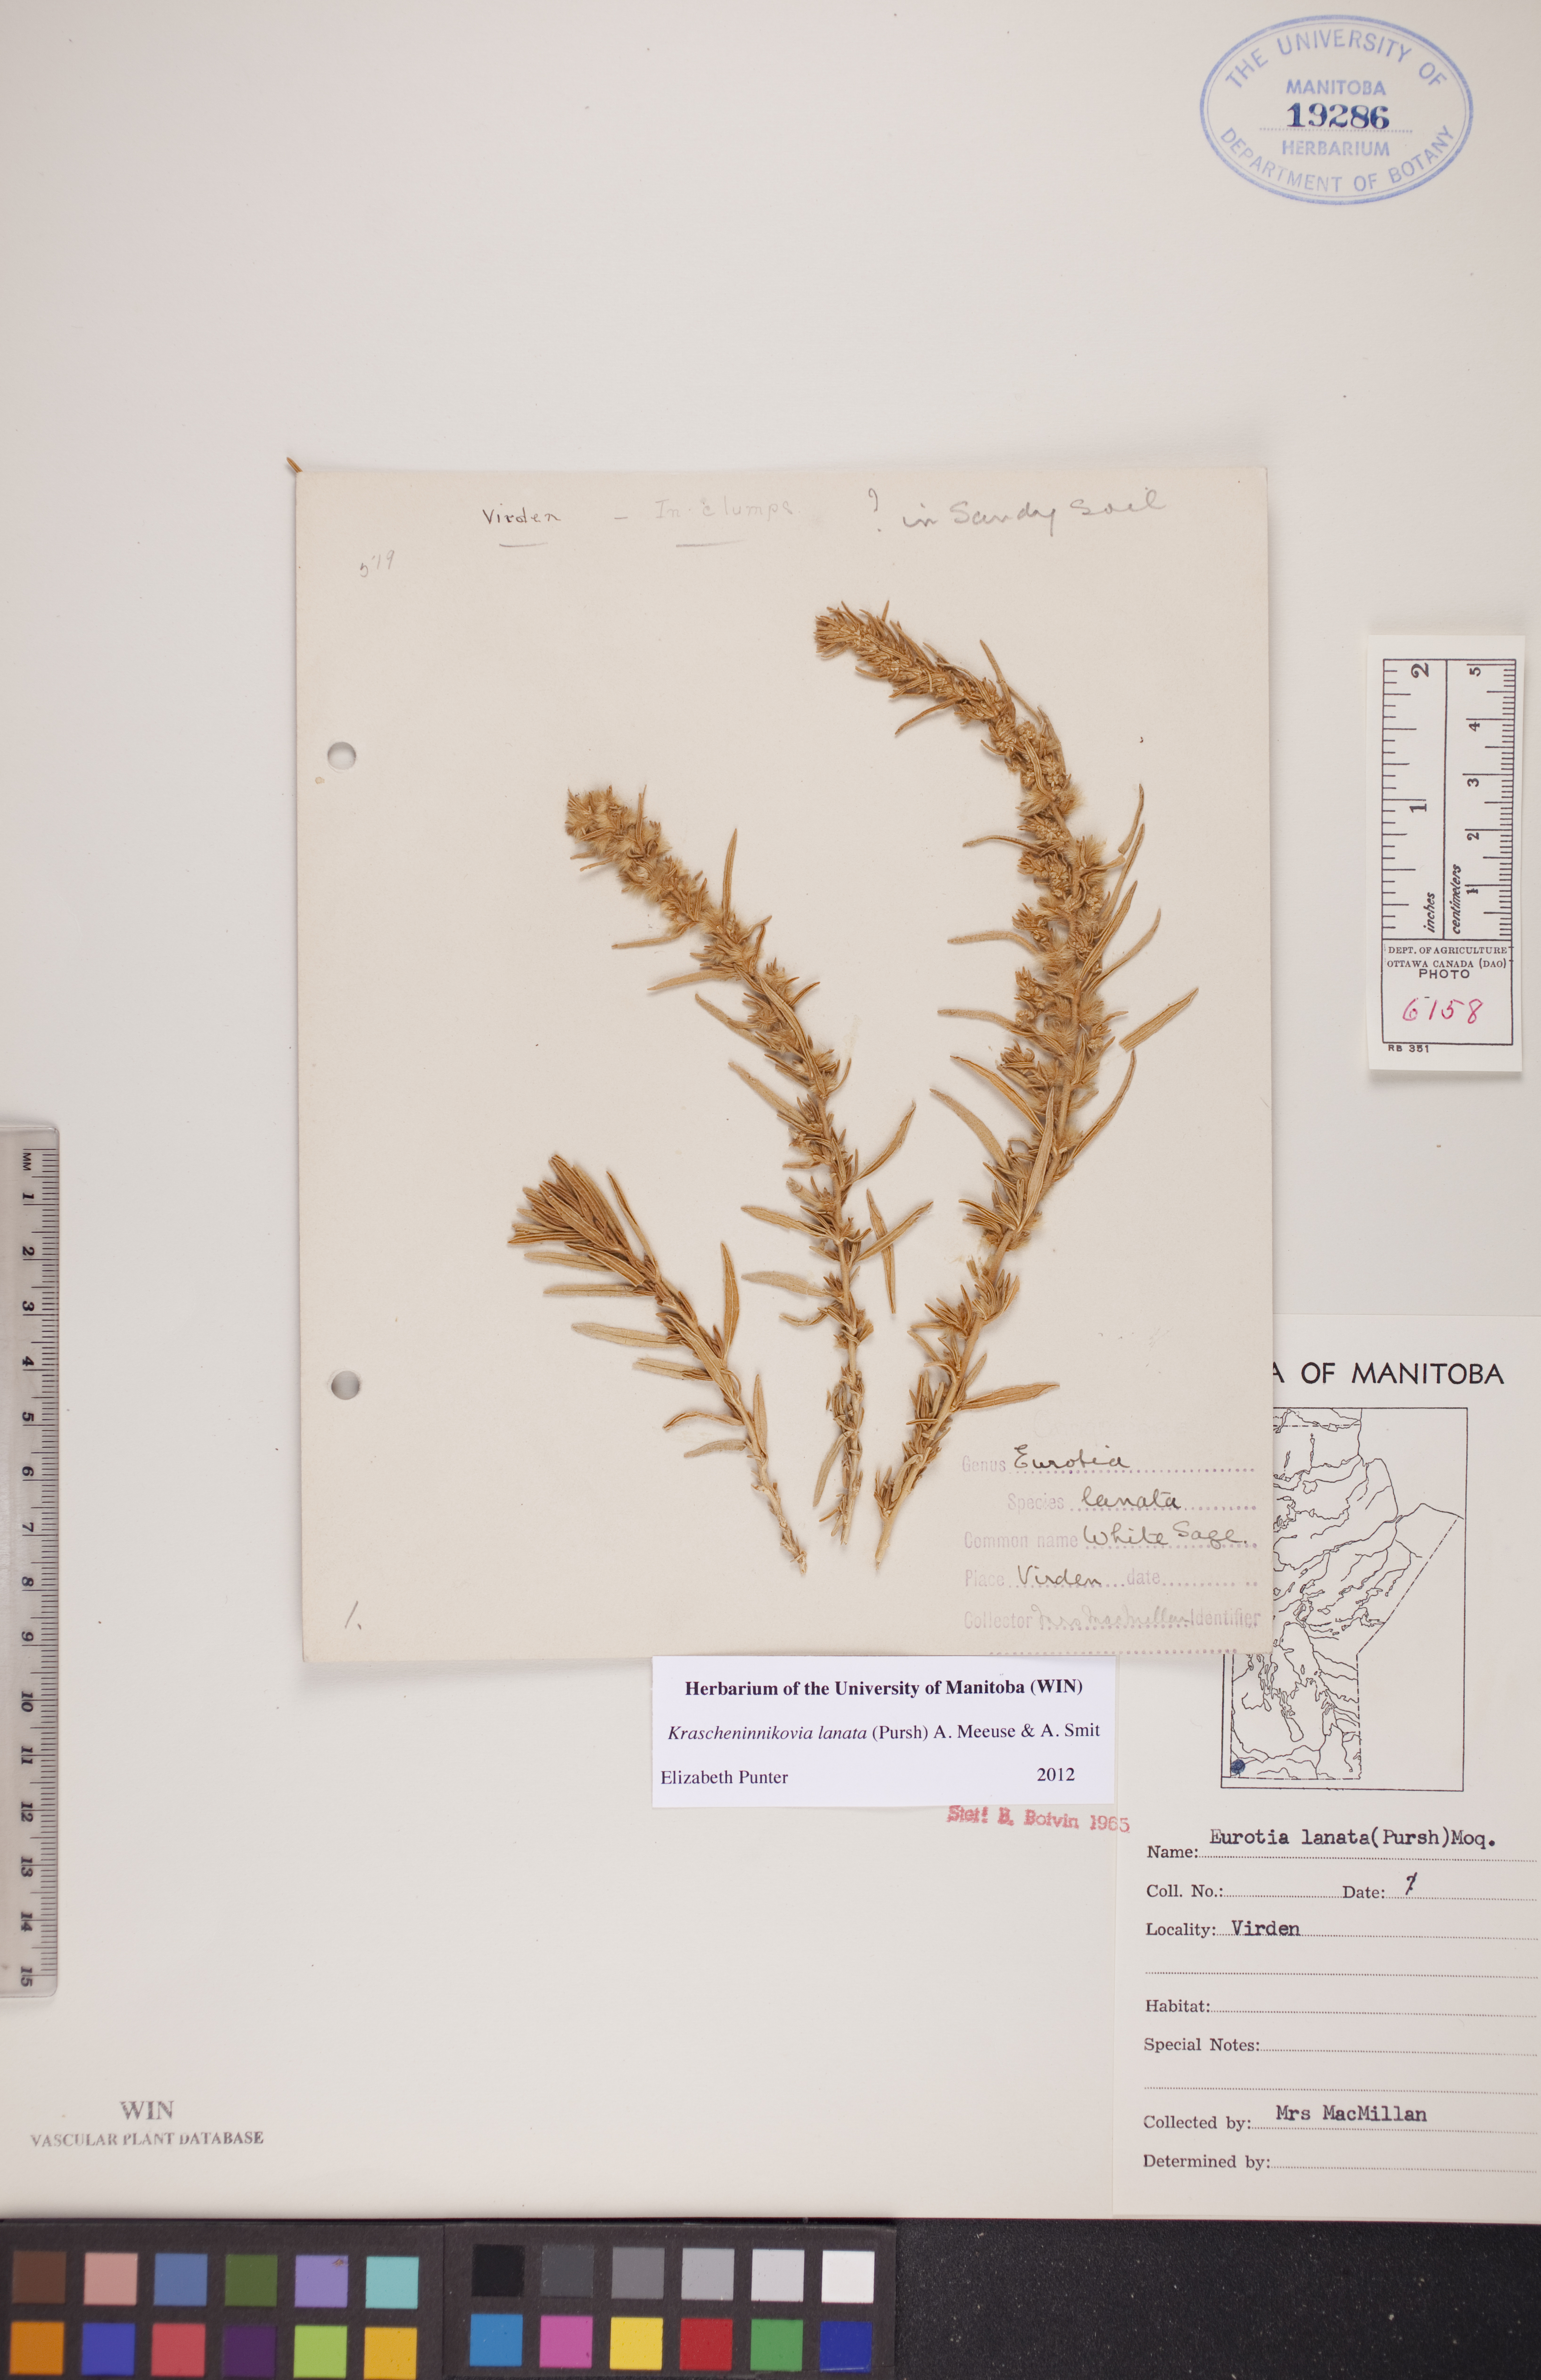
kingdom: Plantae
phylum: Tracheophyta
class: Magnoliopsida
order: Caryophyllales
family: Amaranthaceae
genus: Krascheninnikovia
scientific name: Krascheninnikovia lanata
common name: Winterfat
